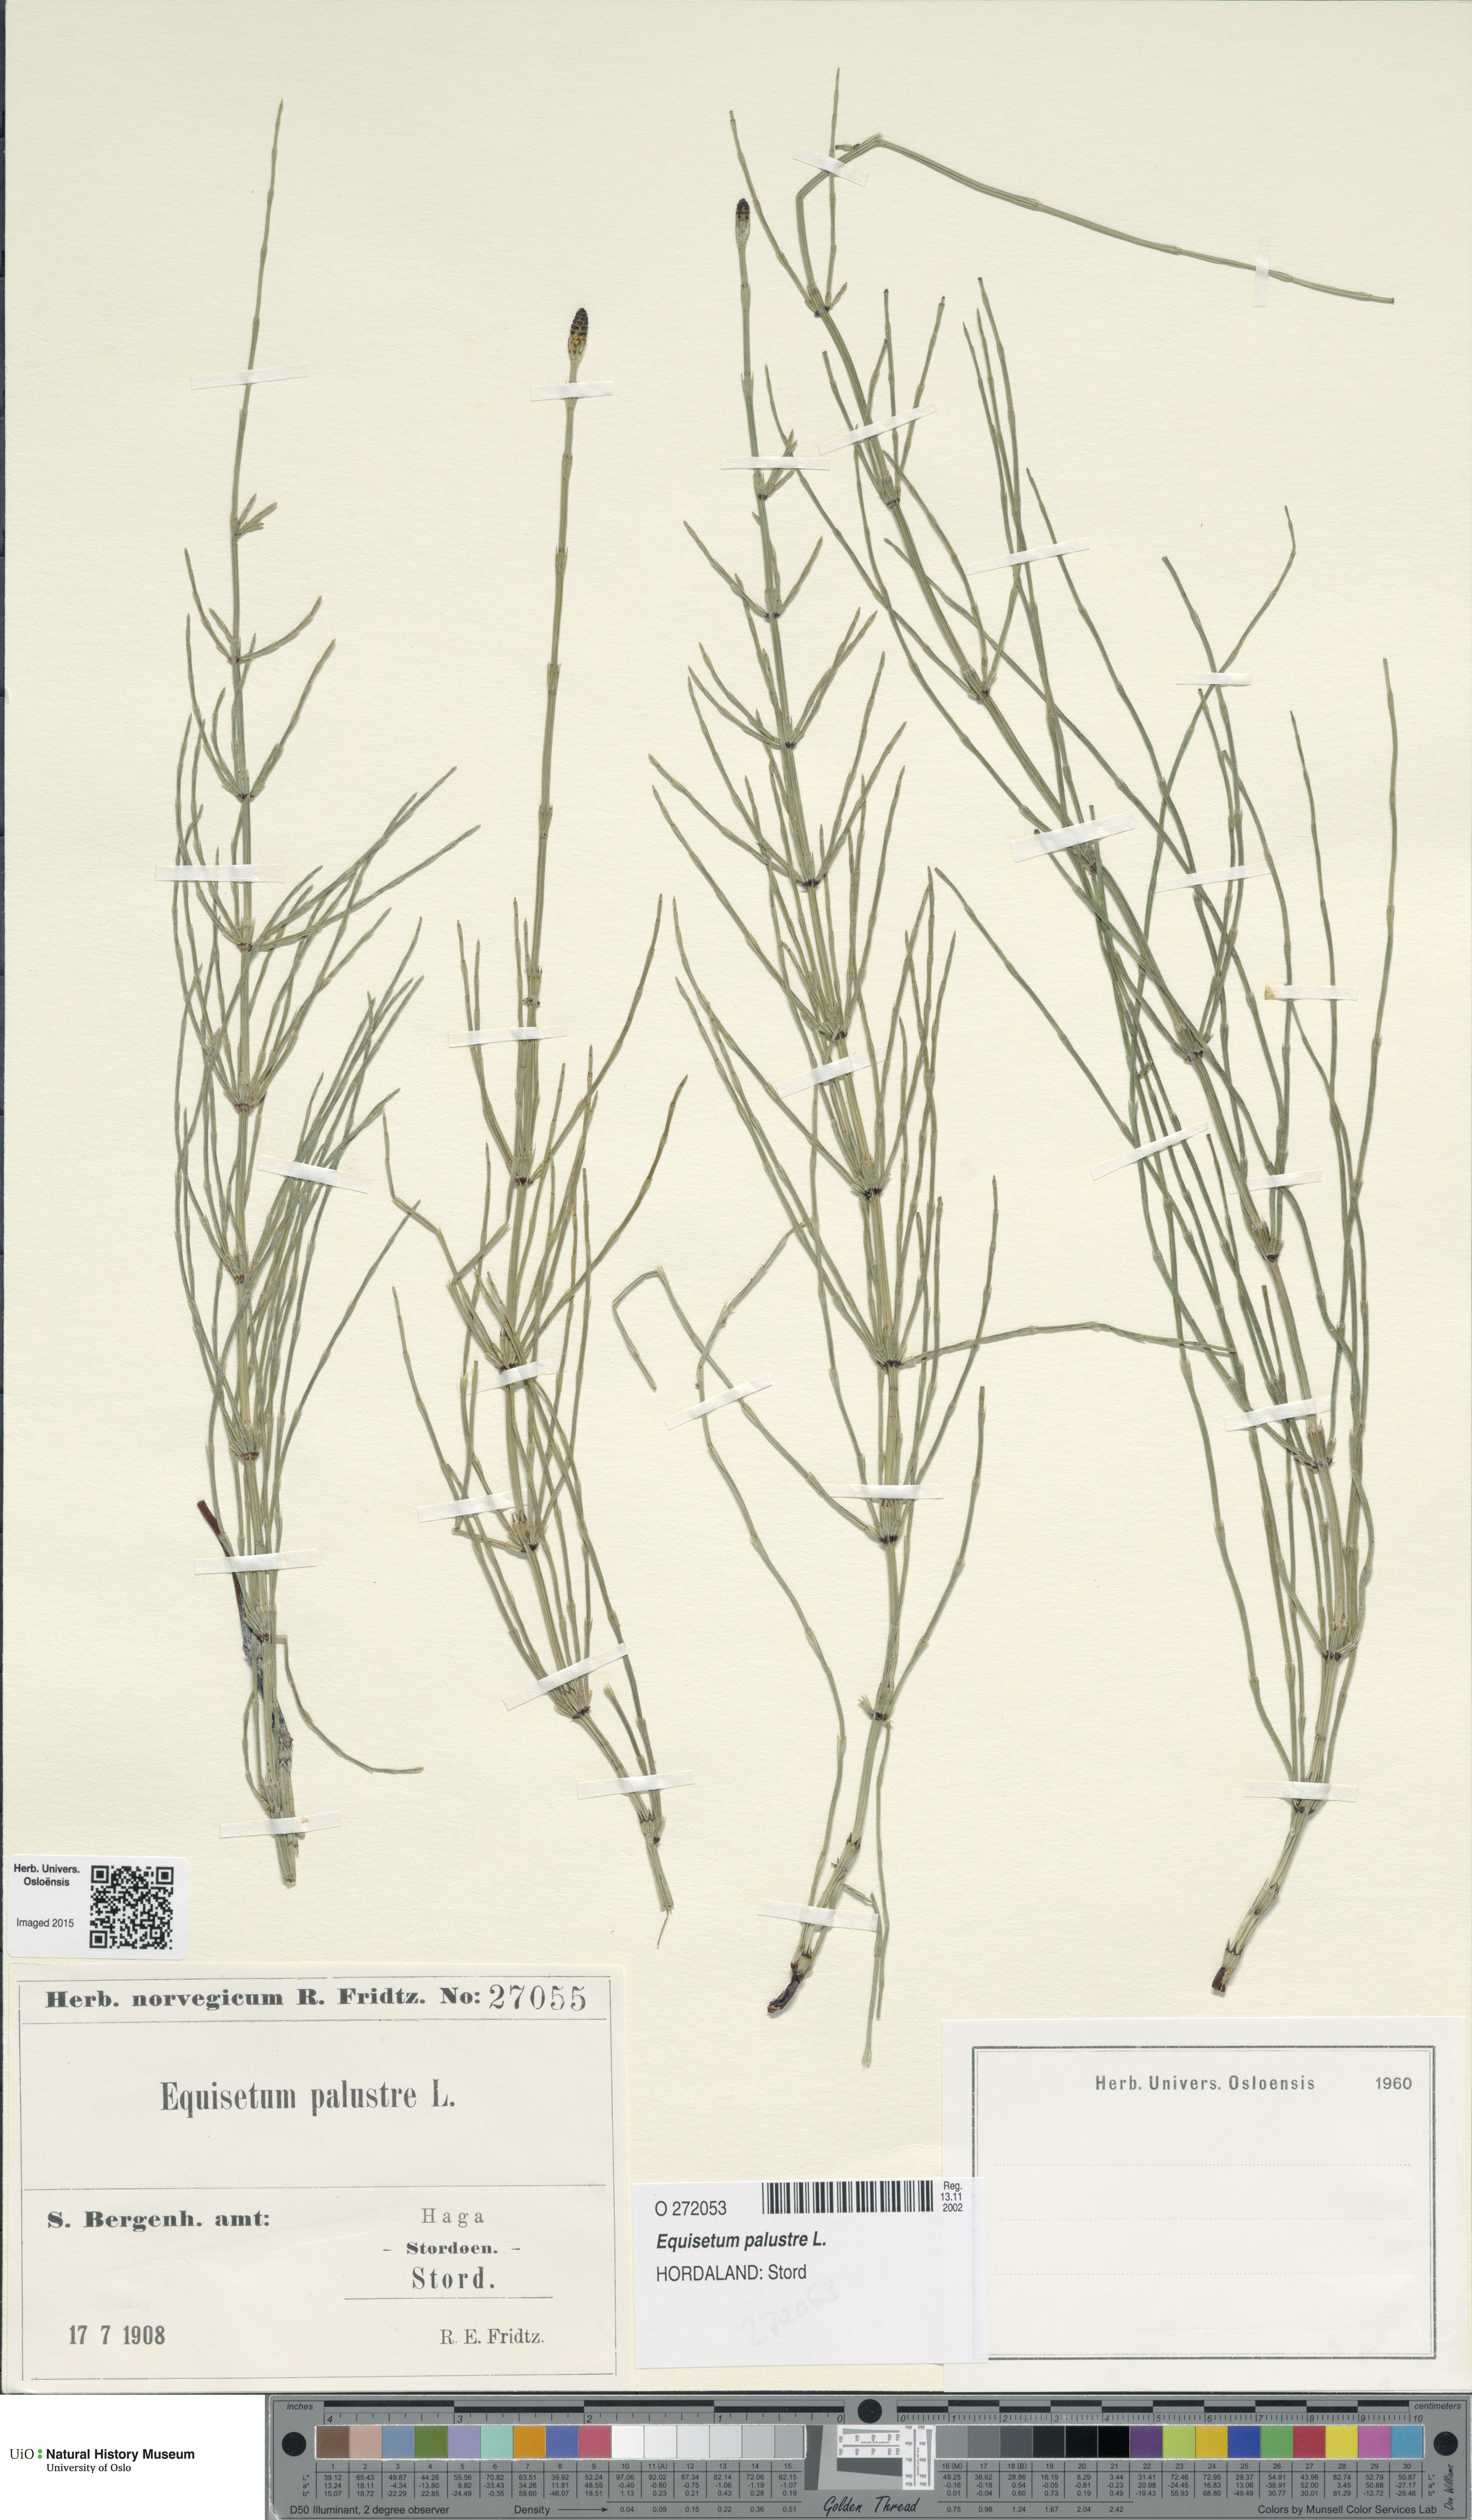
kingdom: Plantae
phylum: Tracheophyta
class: Polypodiopsida
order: Equisetales
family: Equisetaceae
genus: Equisetum
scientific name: Equisetum palustre
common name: Marsh horsetail
